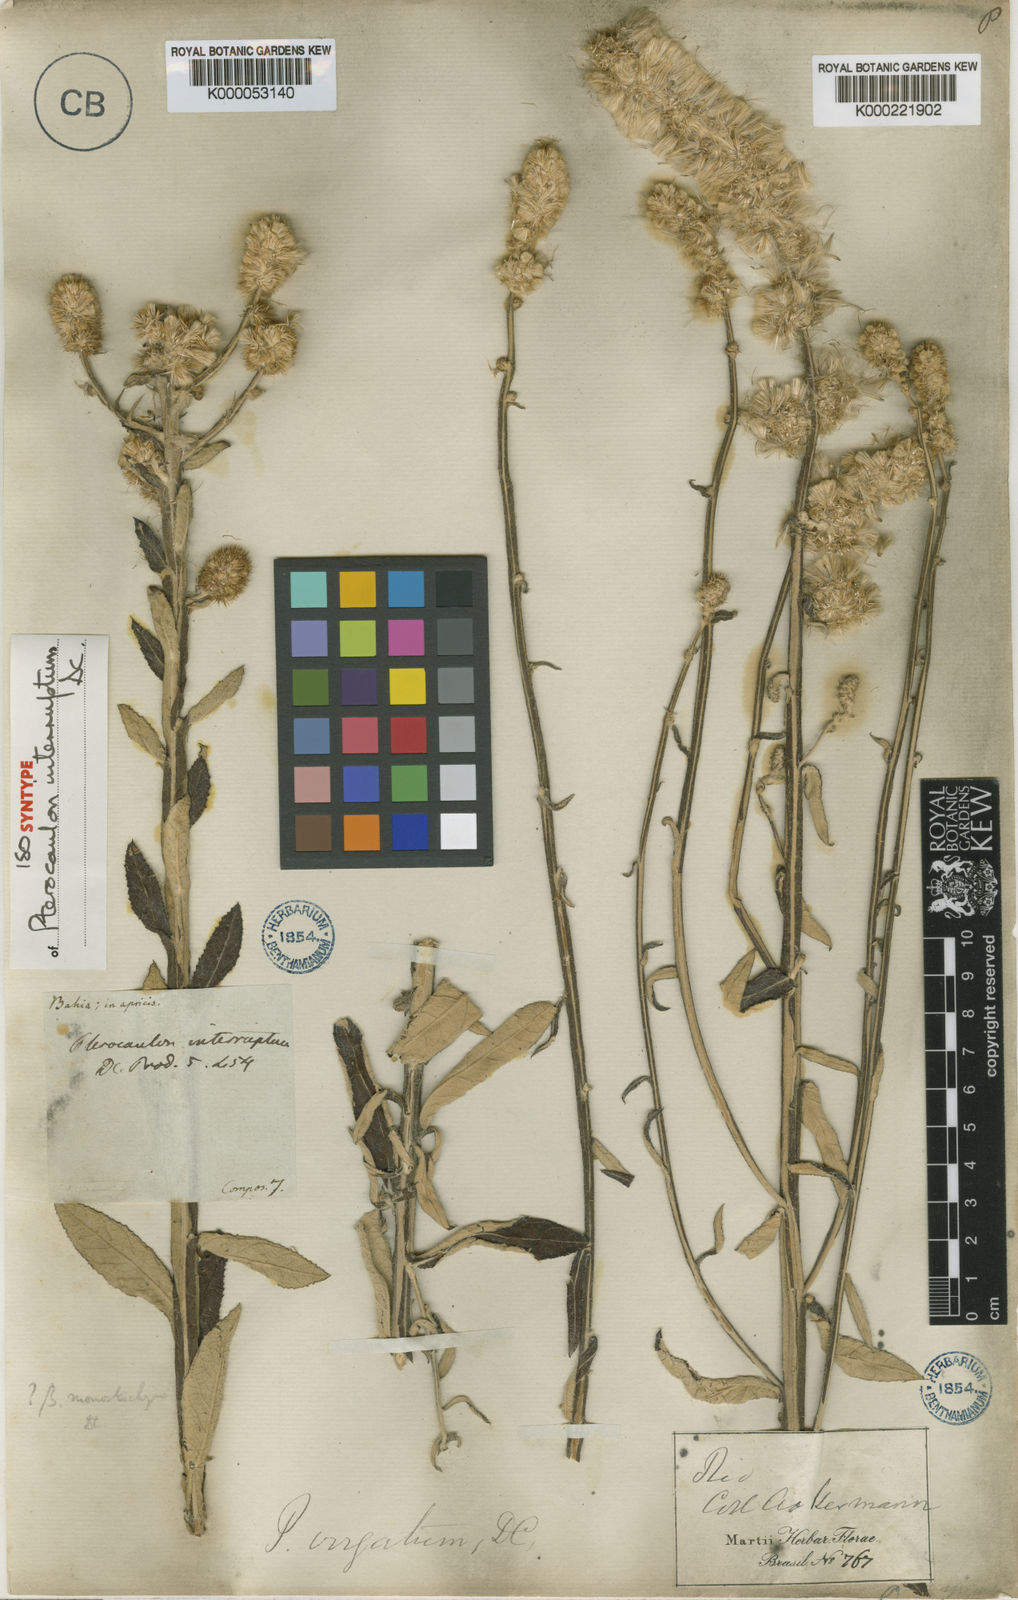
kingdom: Plantae
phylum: Tracheophyta
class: Magnoliopsida
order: Asterales
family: Asteraceae
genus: Pterocaulon
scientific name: Pterocaulon alopecuroides
